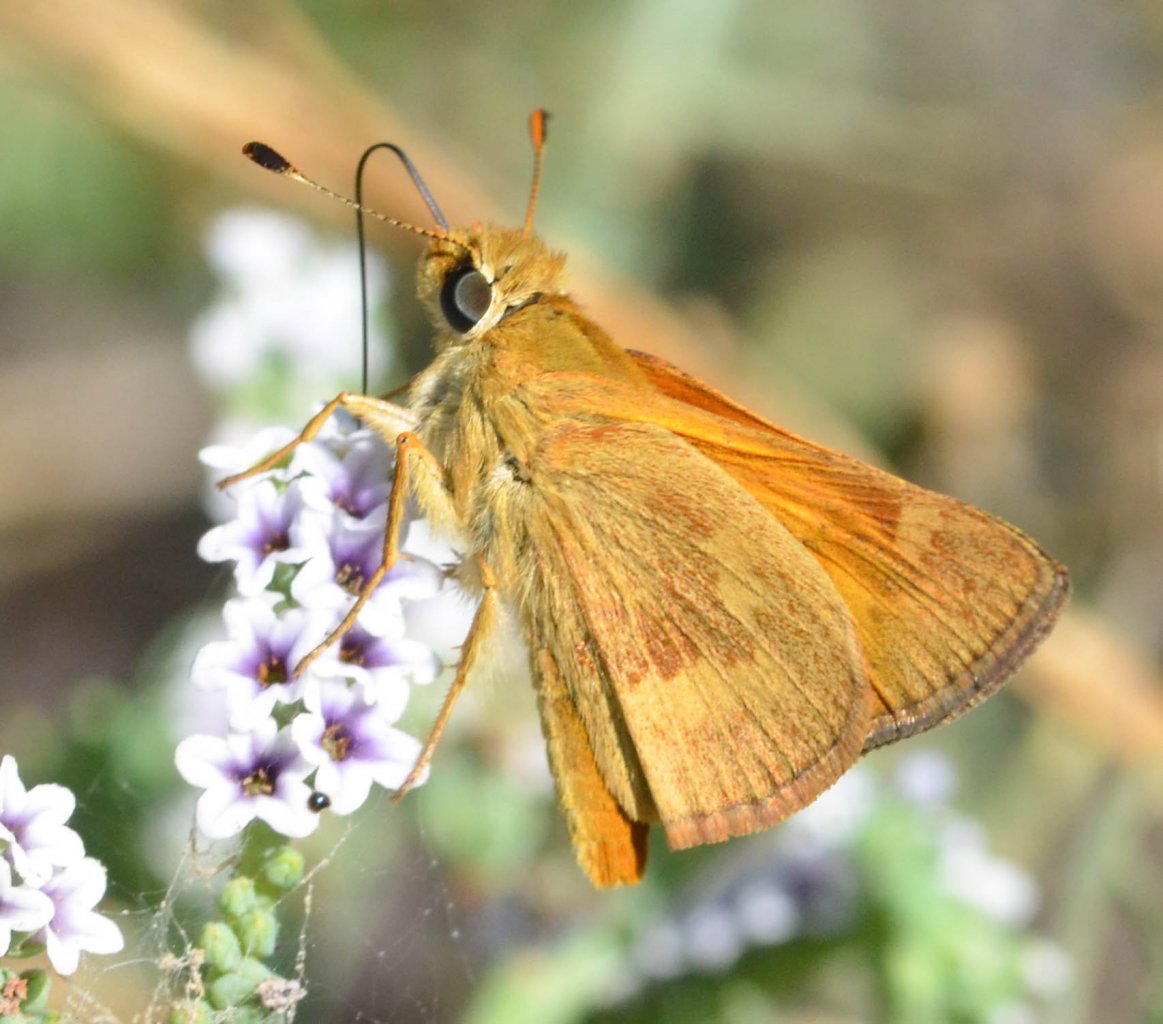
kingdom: Animalia
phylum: Arthropoda
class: Insecta
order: Lepidoptera
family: Hesperiidae
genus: Ochlodes
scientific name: Ochlodes sylvanoides
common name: Woodland Skipper
